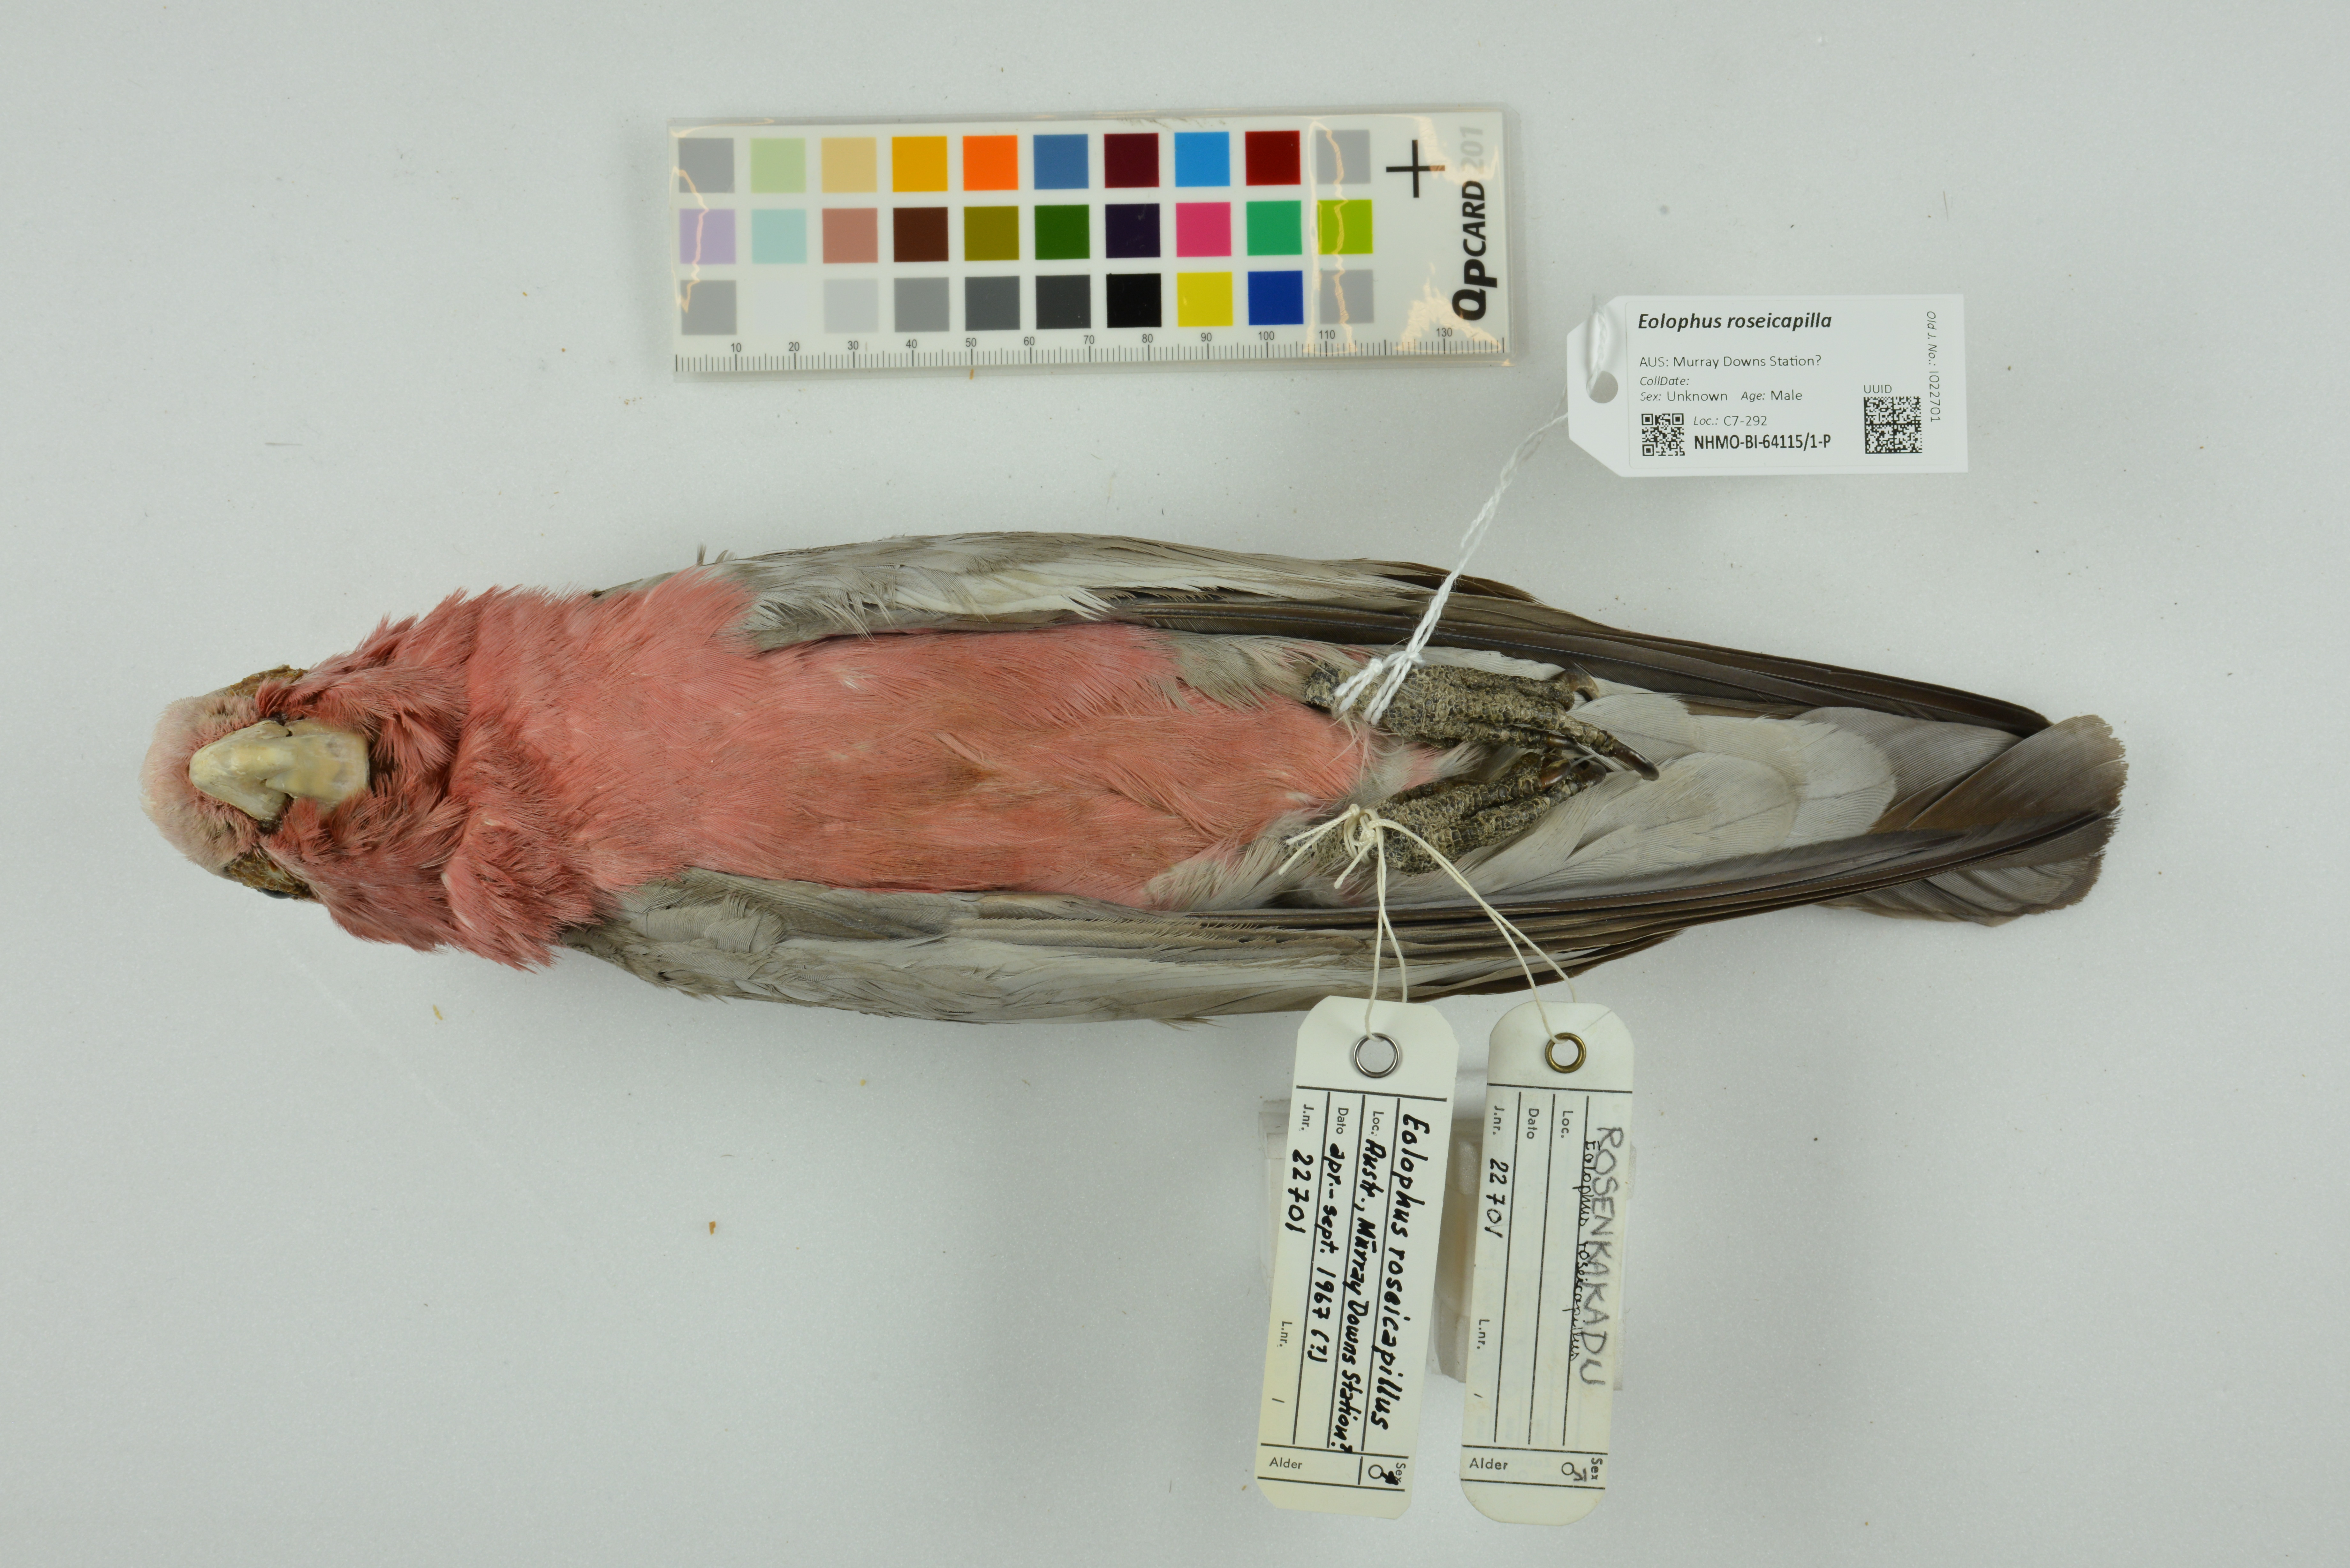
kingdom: Animalia
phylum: Chordata
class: Aves
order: Psittaciformes
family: Psittacidae
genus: Eolophus
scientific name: Eolophus roseicapilla
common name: Galah
